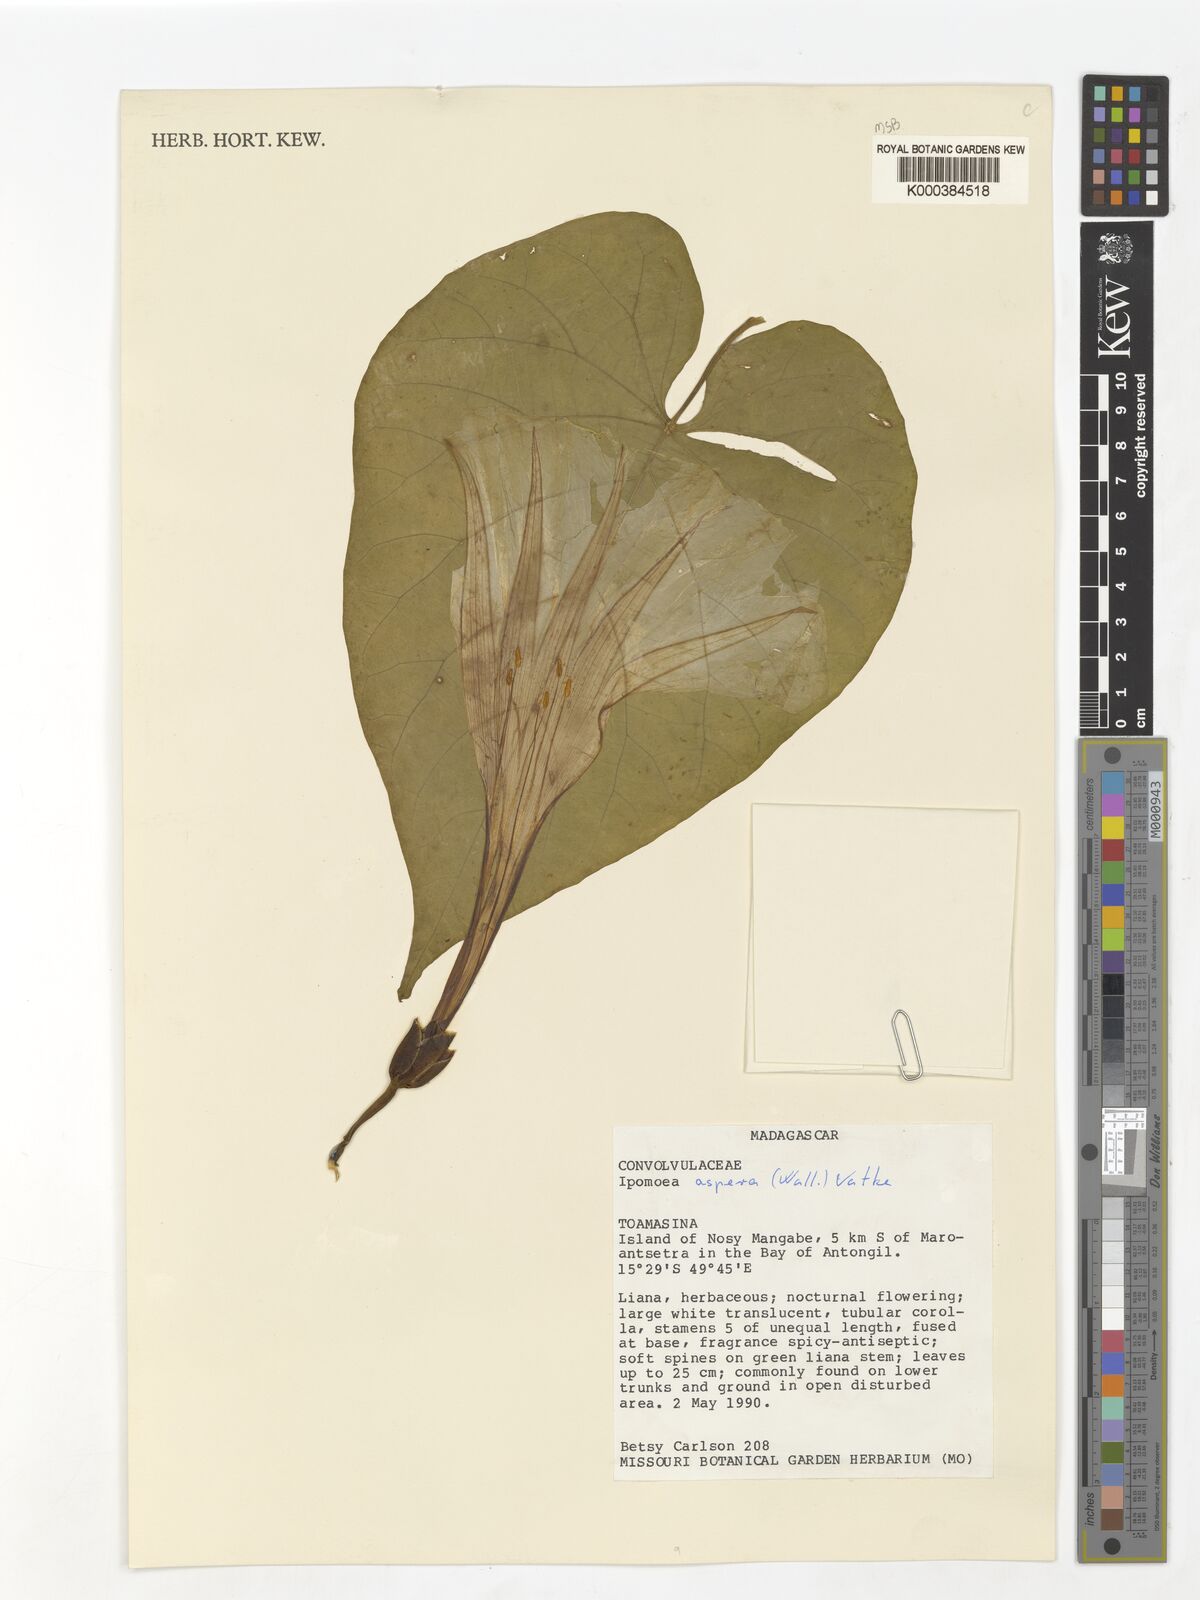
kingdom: Plantae
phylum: Tracheophyta
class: Magnoliopsida
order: Solanales
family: Convolvulaceae
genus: Ipomoea
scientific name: Ipomoea aspera
